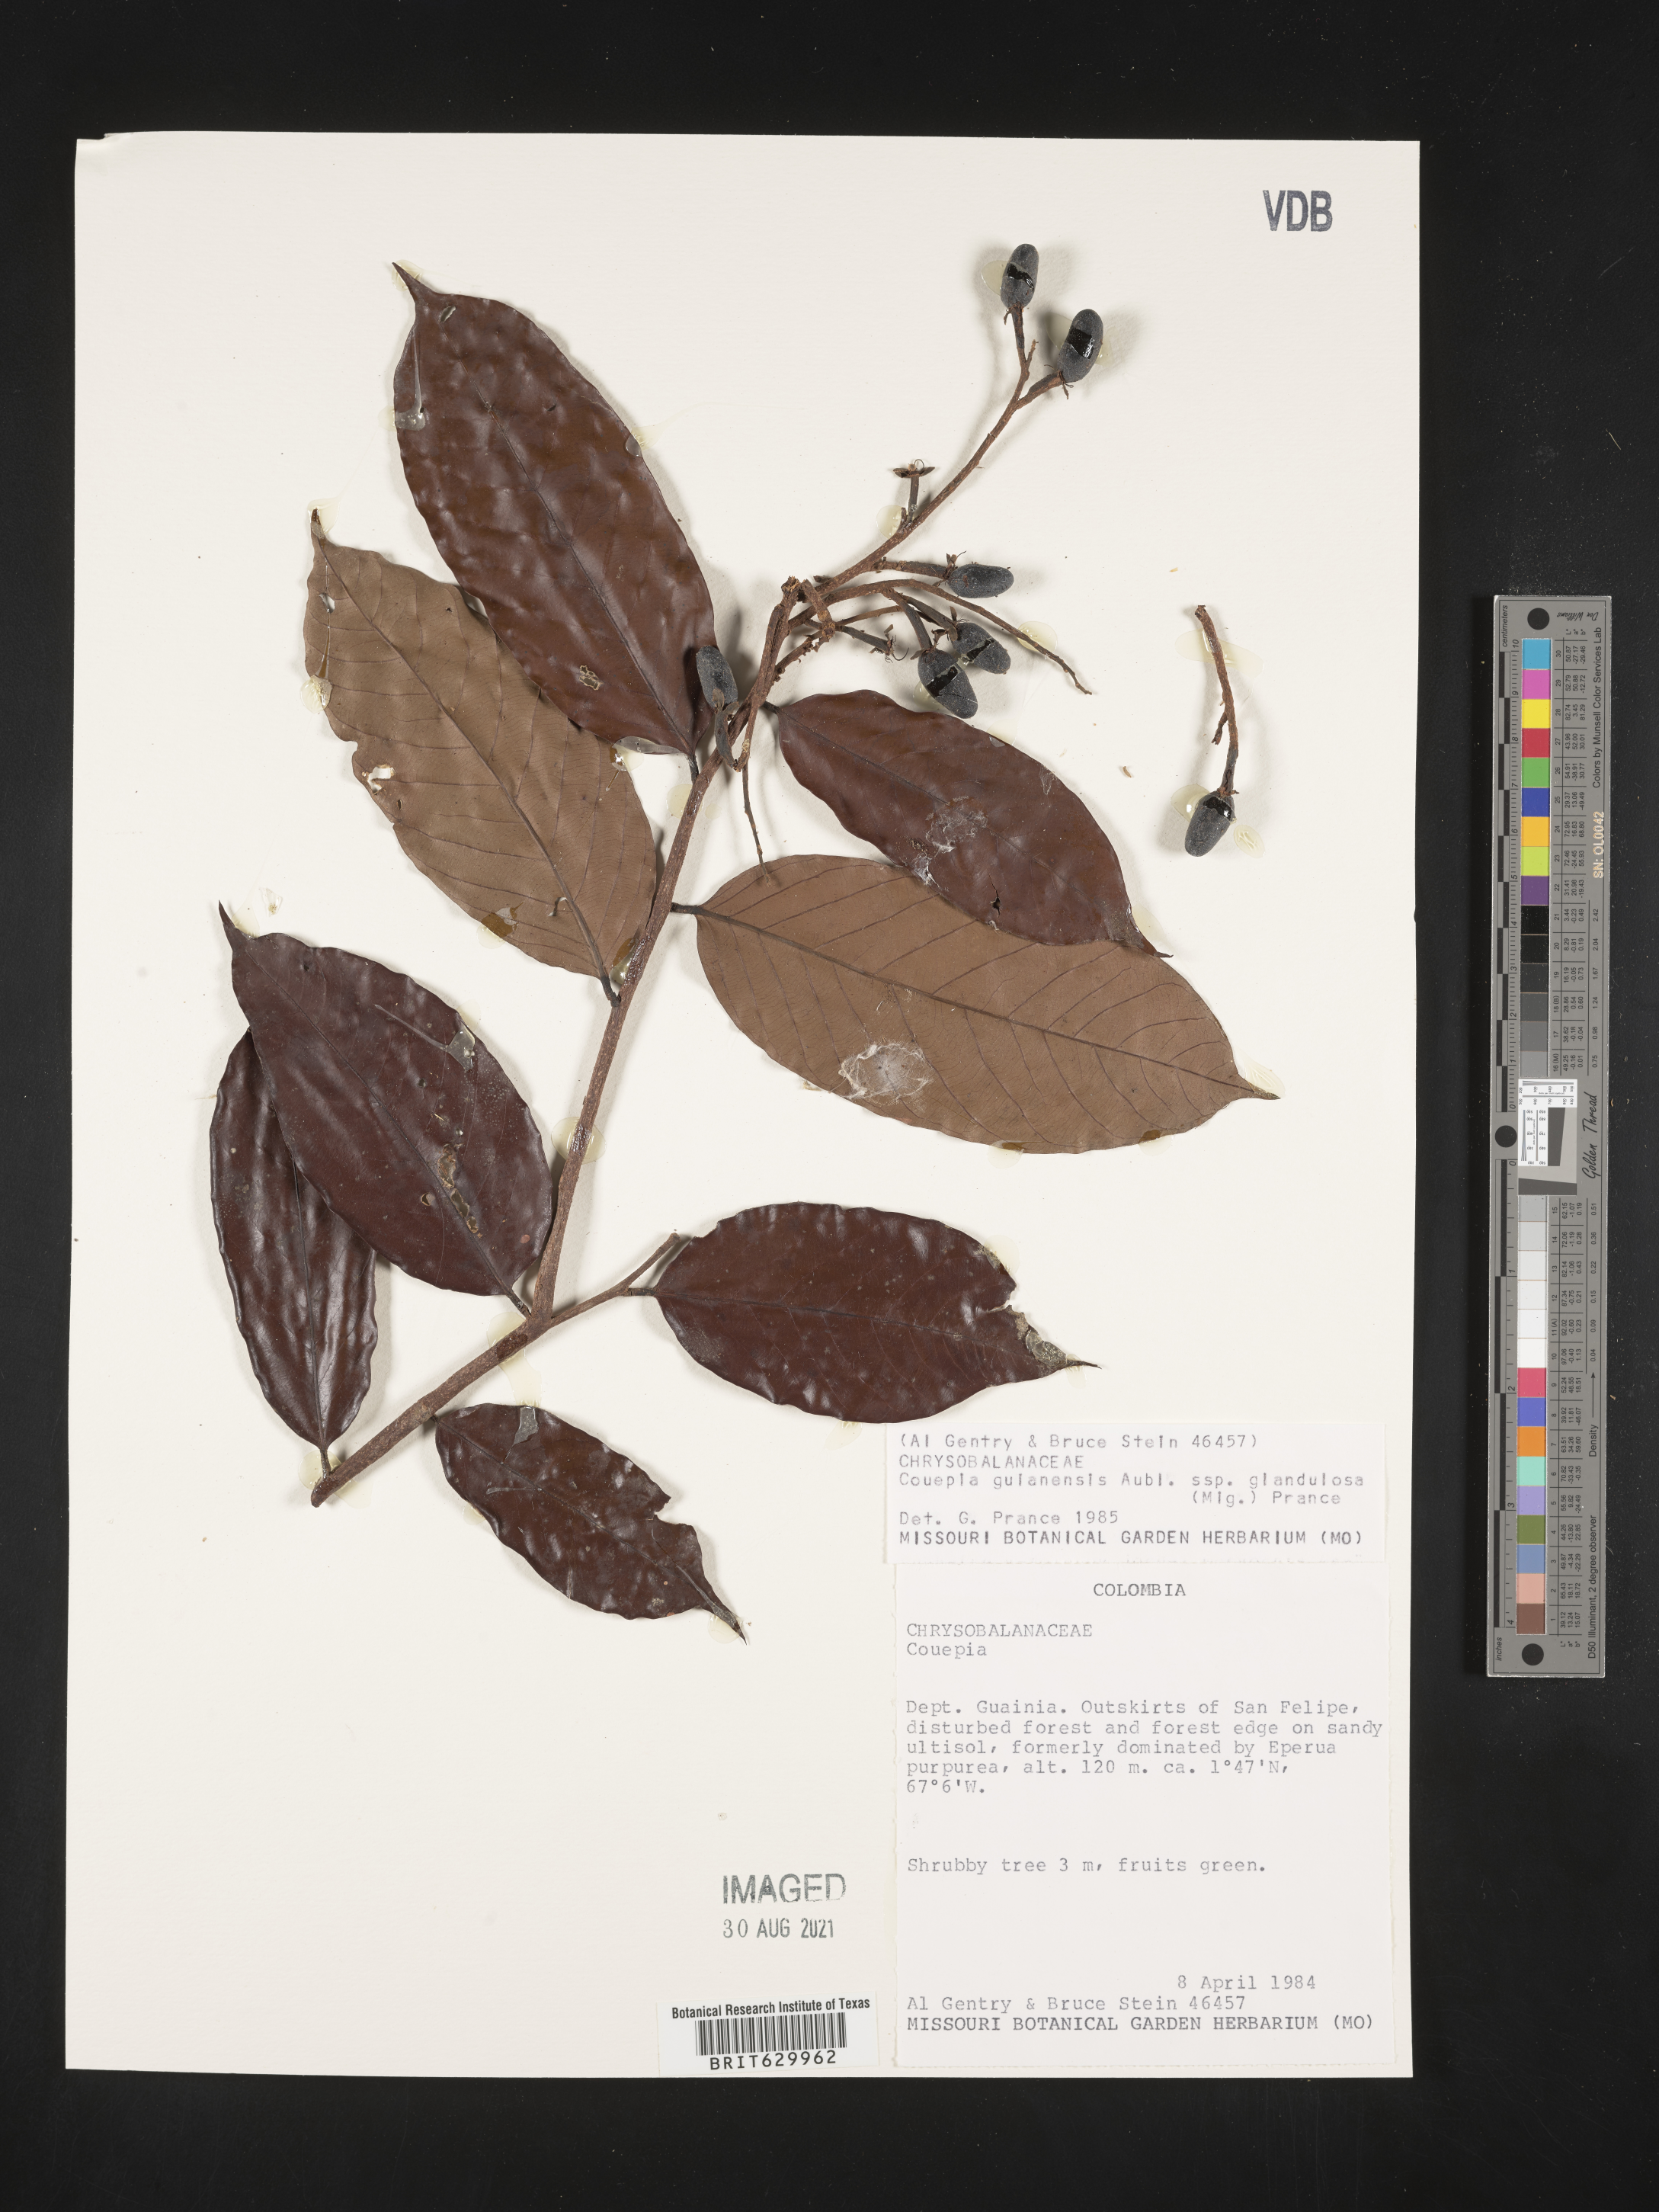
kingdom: Plantae
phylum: Tracheophyta
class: Magnoliopsida
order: Malpighiales
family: Chrysobalanaceae
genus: Couepia
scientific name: Couepia guianensis
